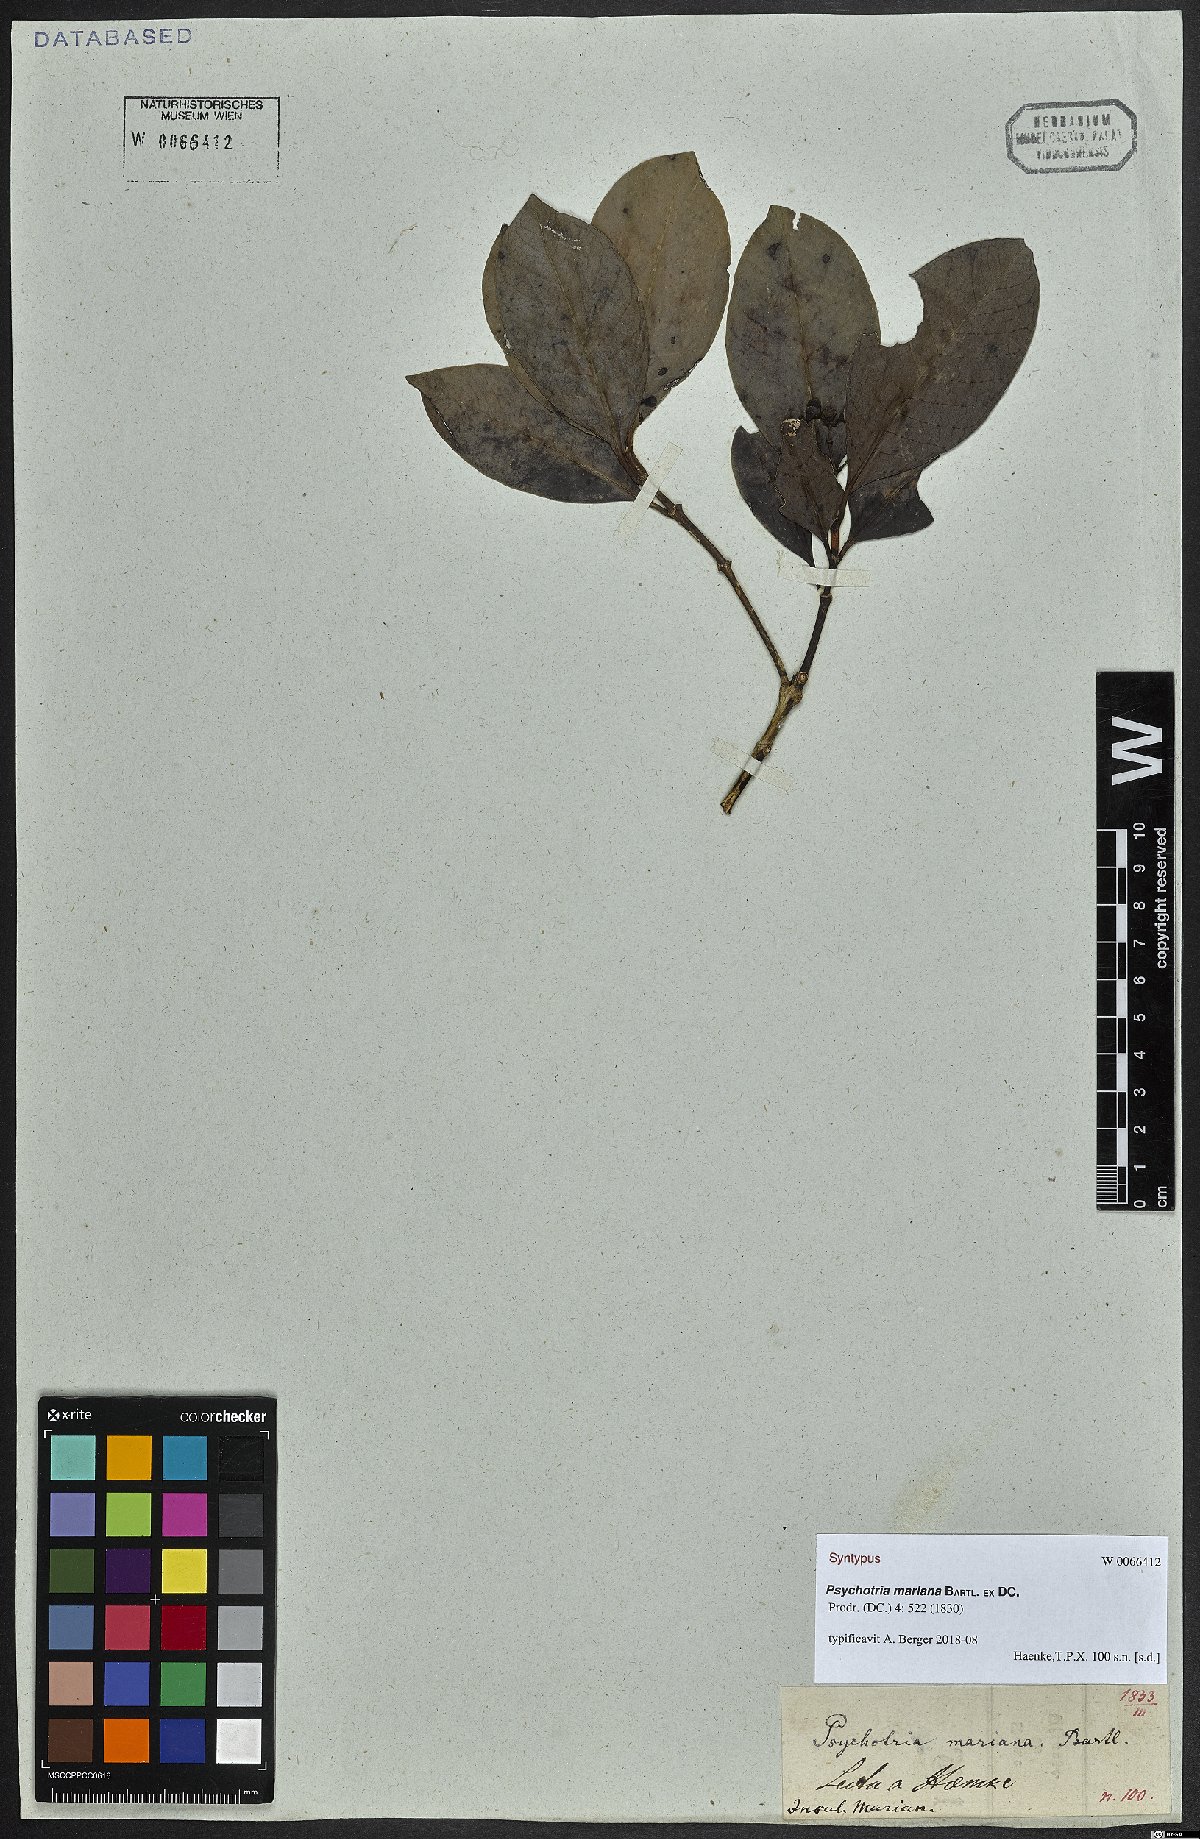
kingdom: Plantae
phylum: Tracheophyta
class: Magnoliopsida
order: Gentianales
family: Rubiaceae
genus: Psychotria
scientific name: Psychotria mariana
